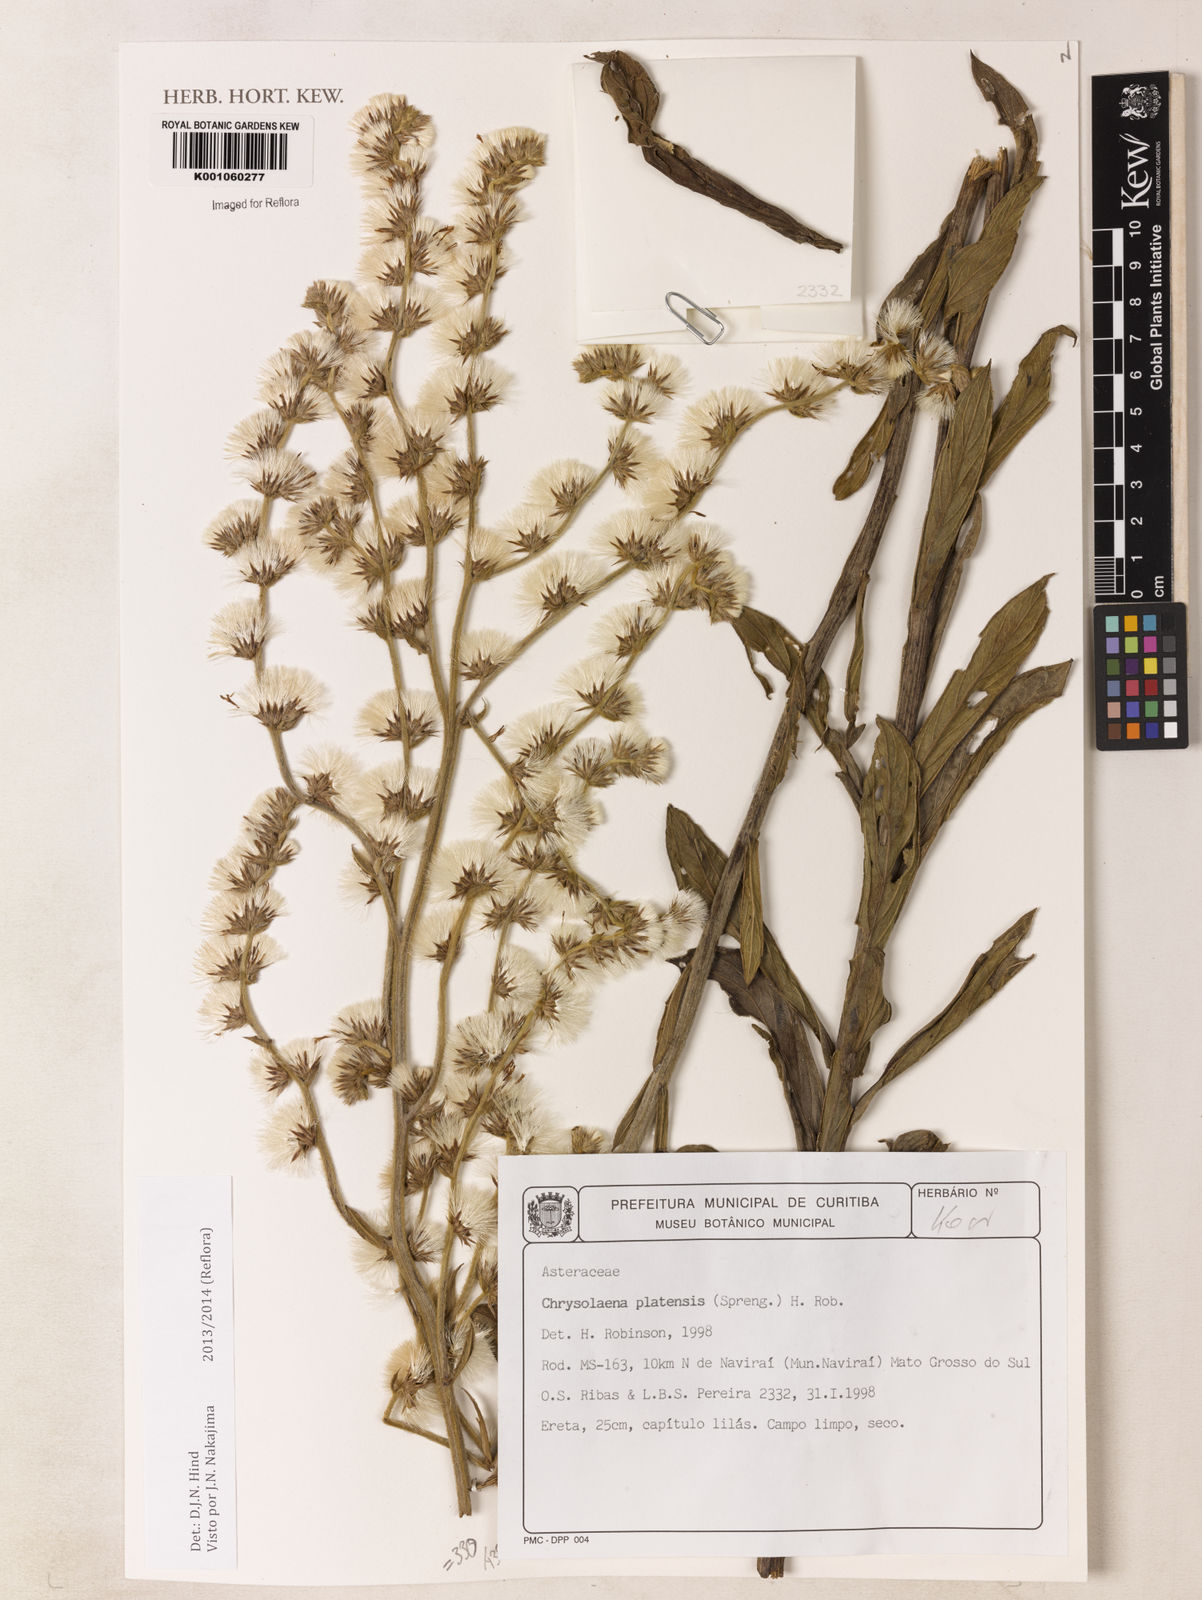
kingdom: Plantae
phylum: Tracheophyta
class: Magnoliopsida
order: Asterales
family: Asteraceae
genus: Chrysolaena
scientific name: Chrysolaena platensis
